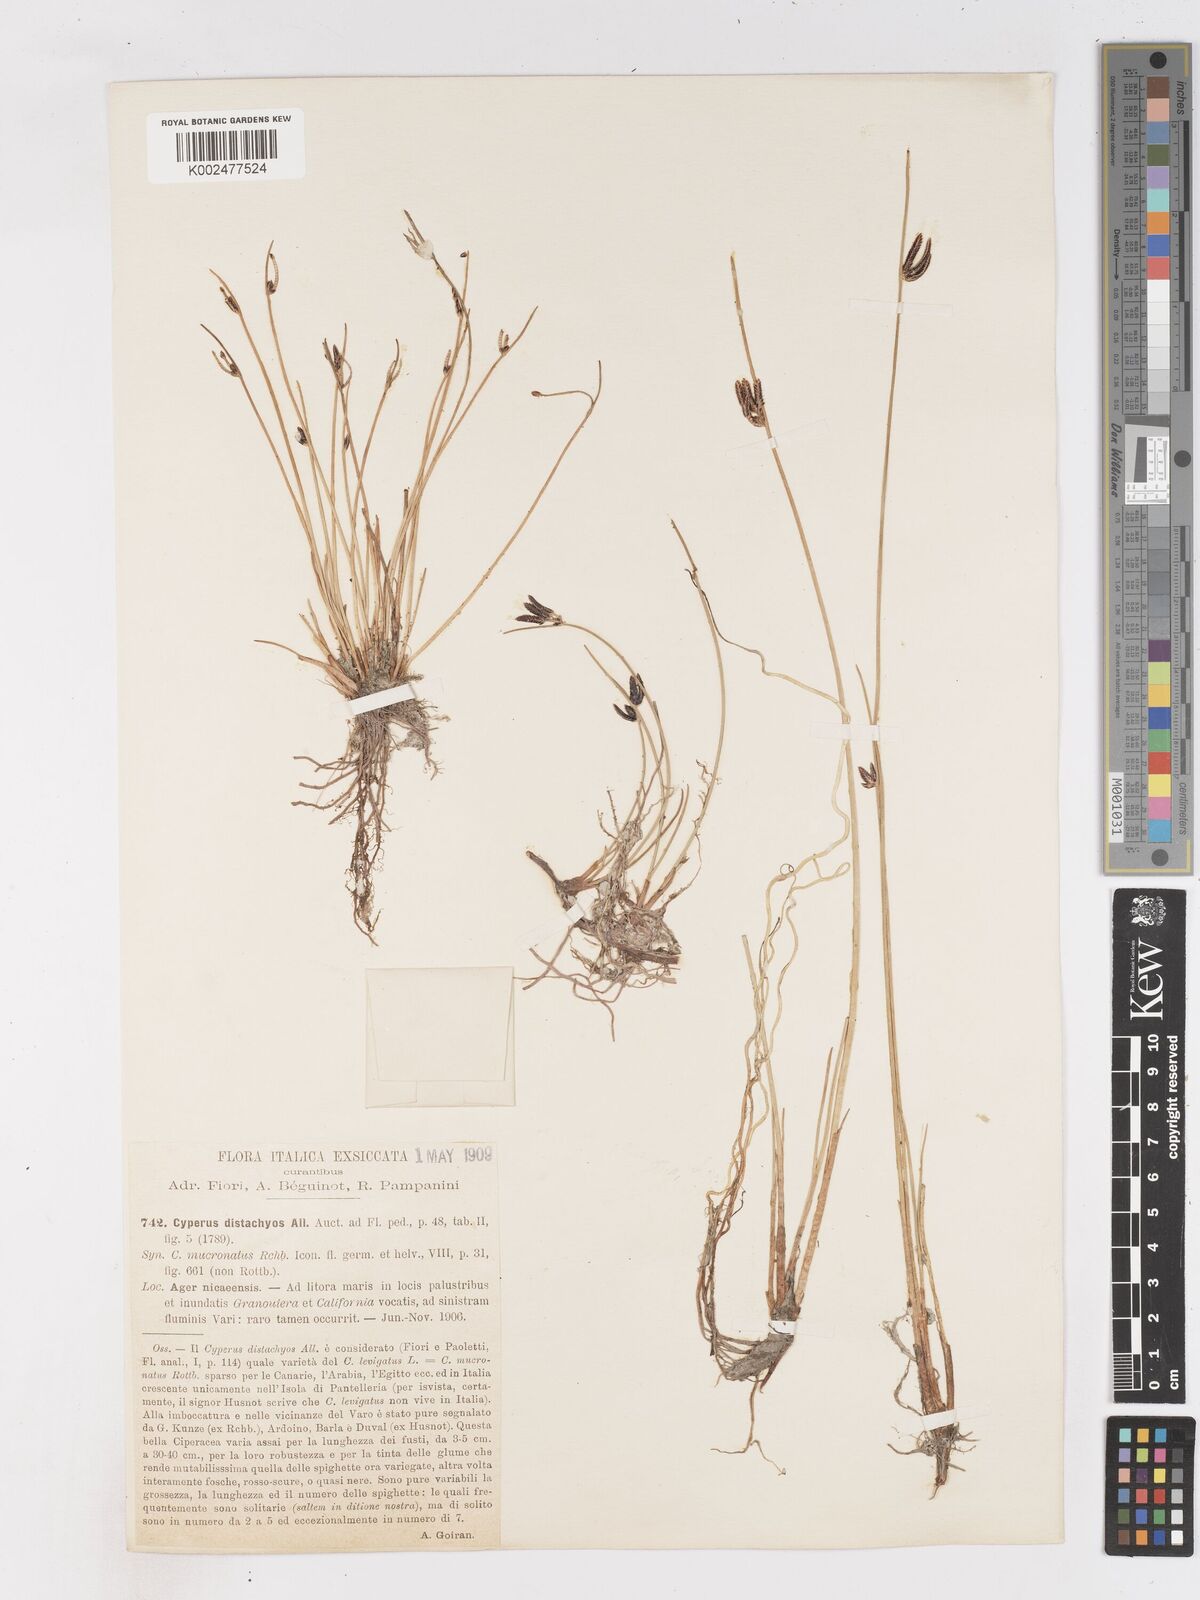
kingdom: Plantae
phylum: Tracheophyta
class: Liliopsida
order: Poales
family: Cyperaceae
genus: Cyperus
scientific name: Cyperus laevigatus
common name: Smooth flat sedge
